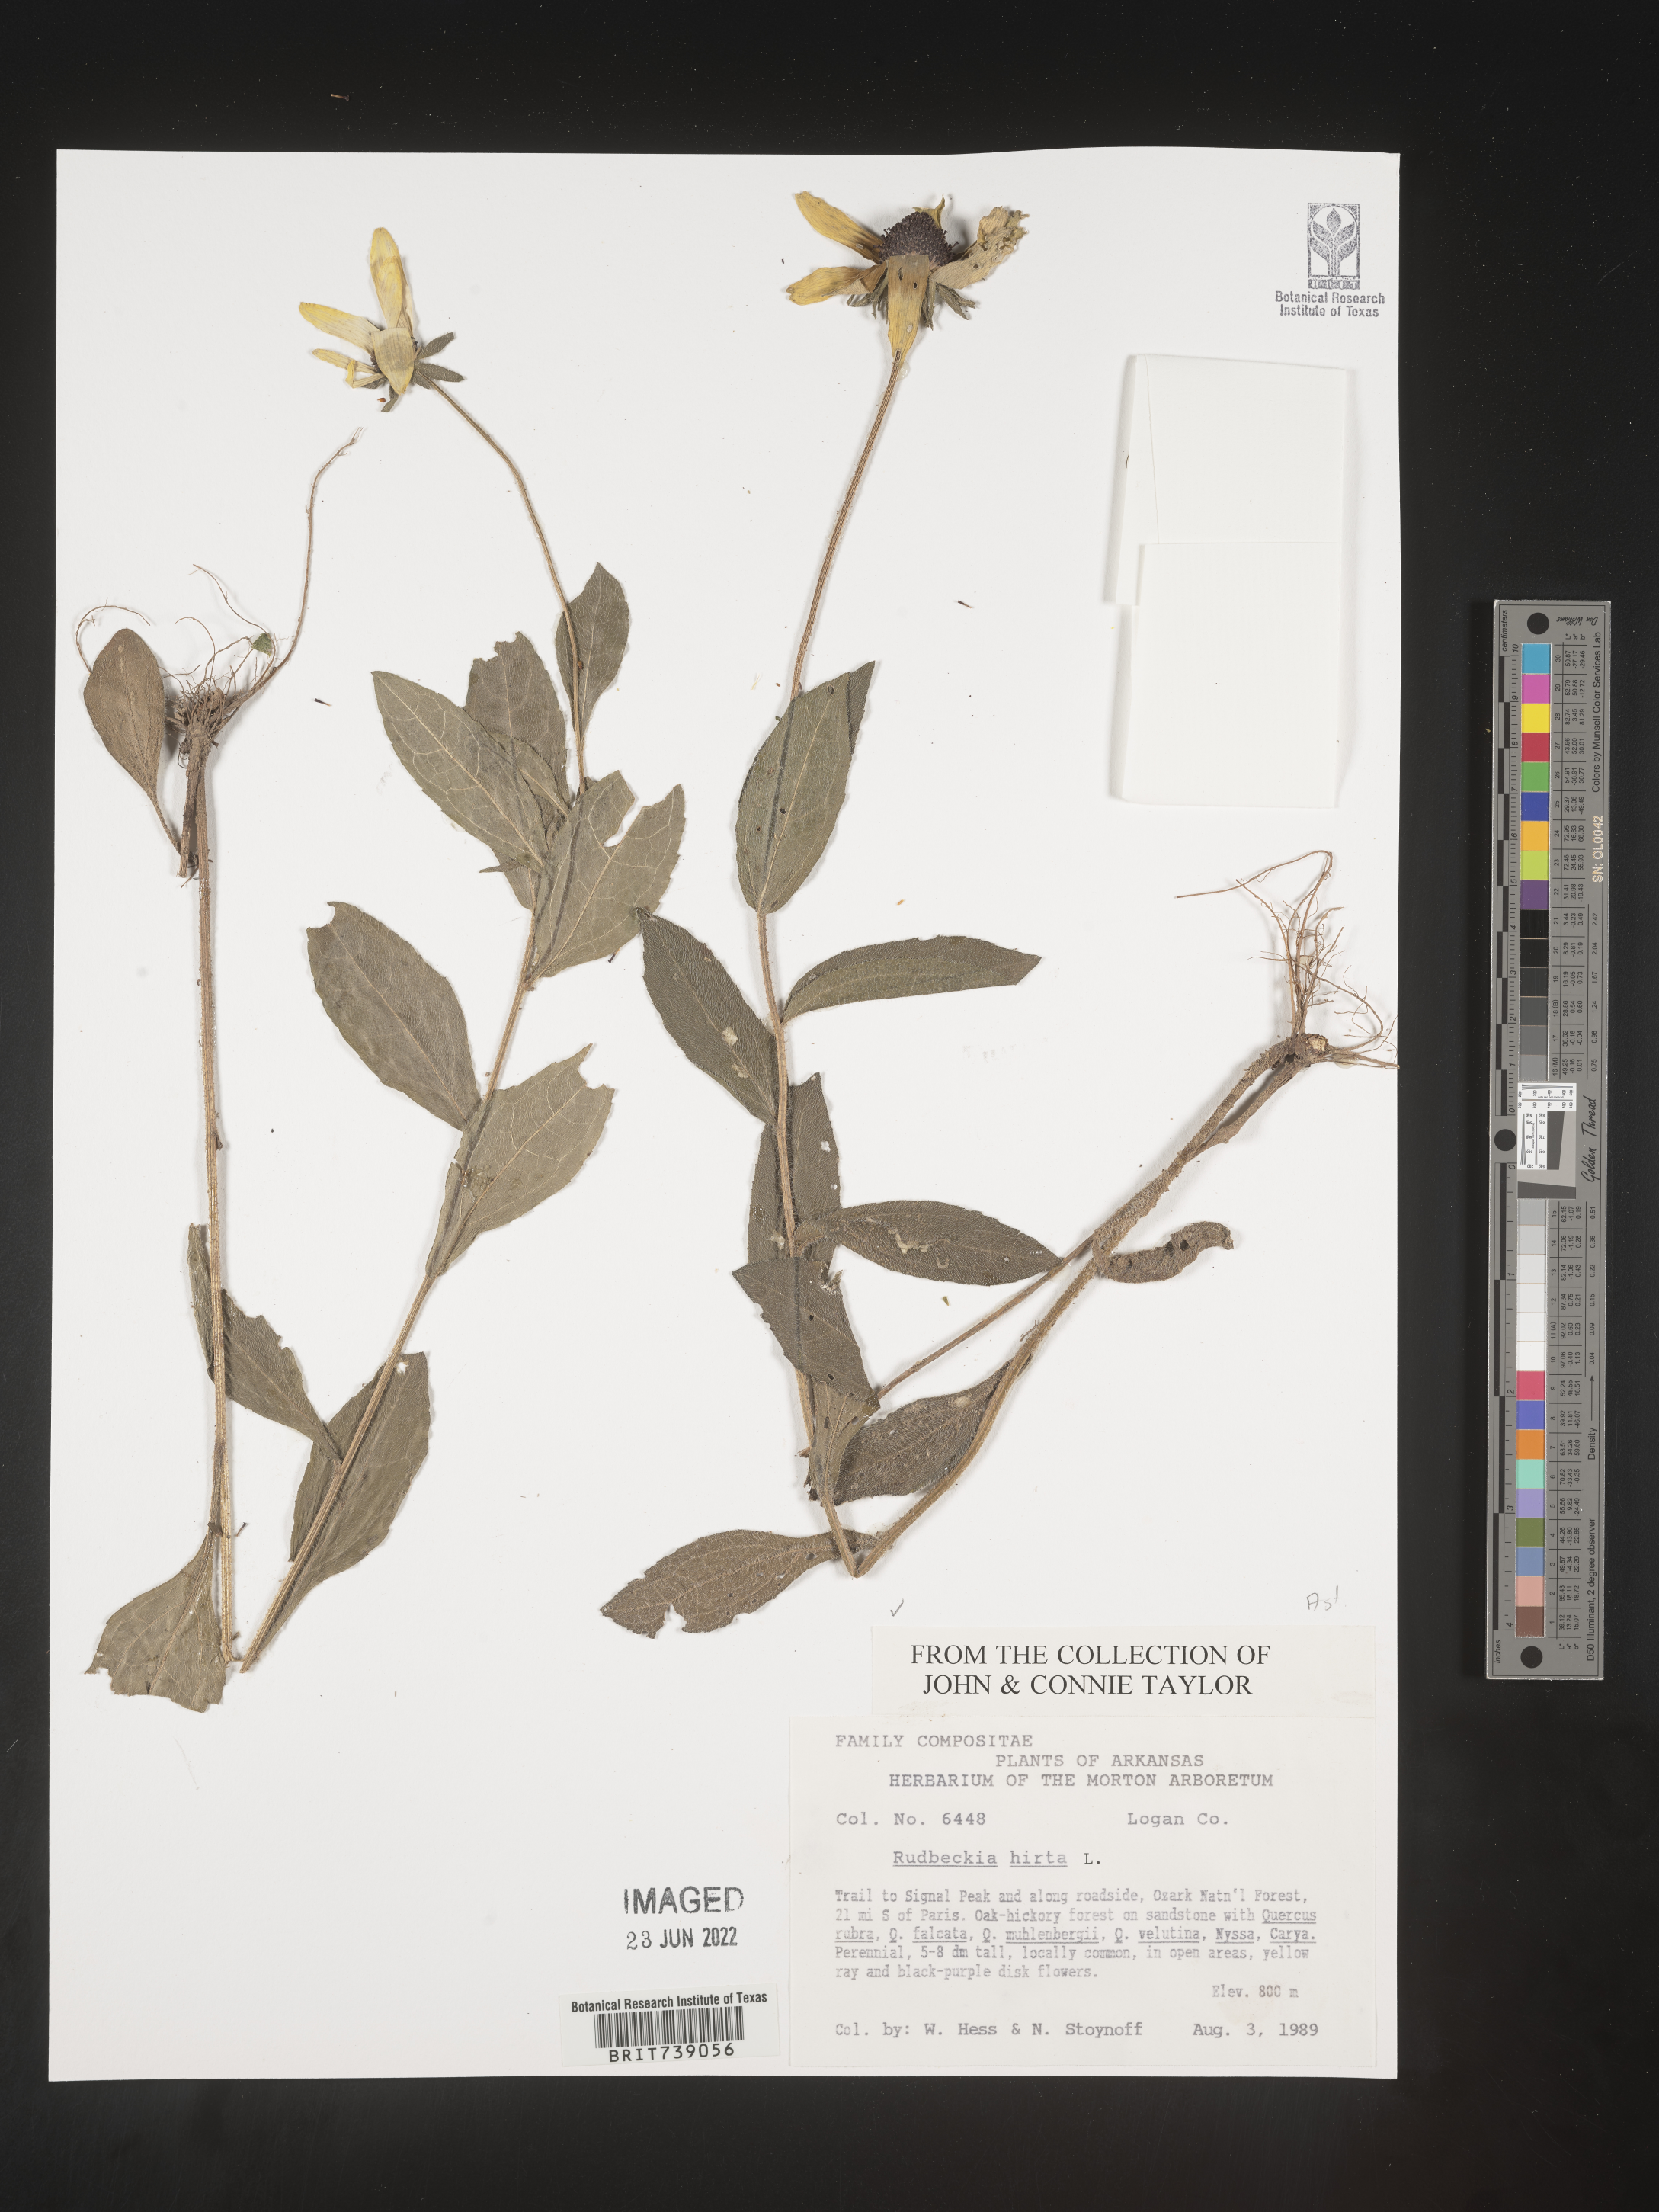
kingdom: Plantae
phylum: Tracheophyta
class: Magnoliopsida
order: Asterales
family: Asteraceae
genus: Rudbeckia
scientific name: Rudbeckia hirta
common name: Black-eyed-susan
